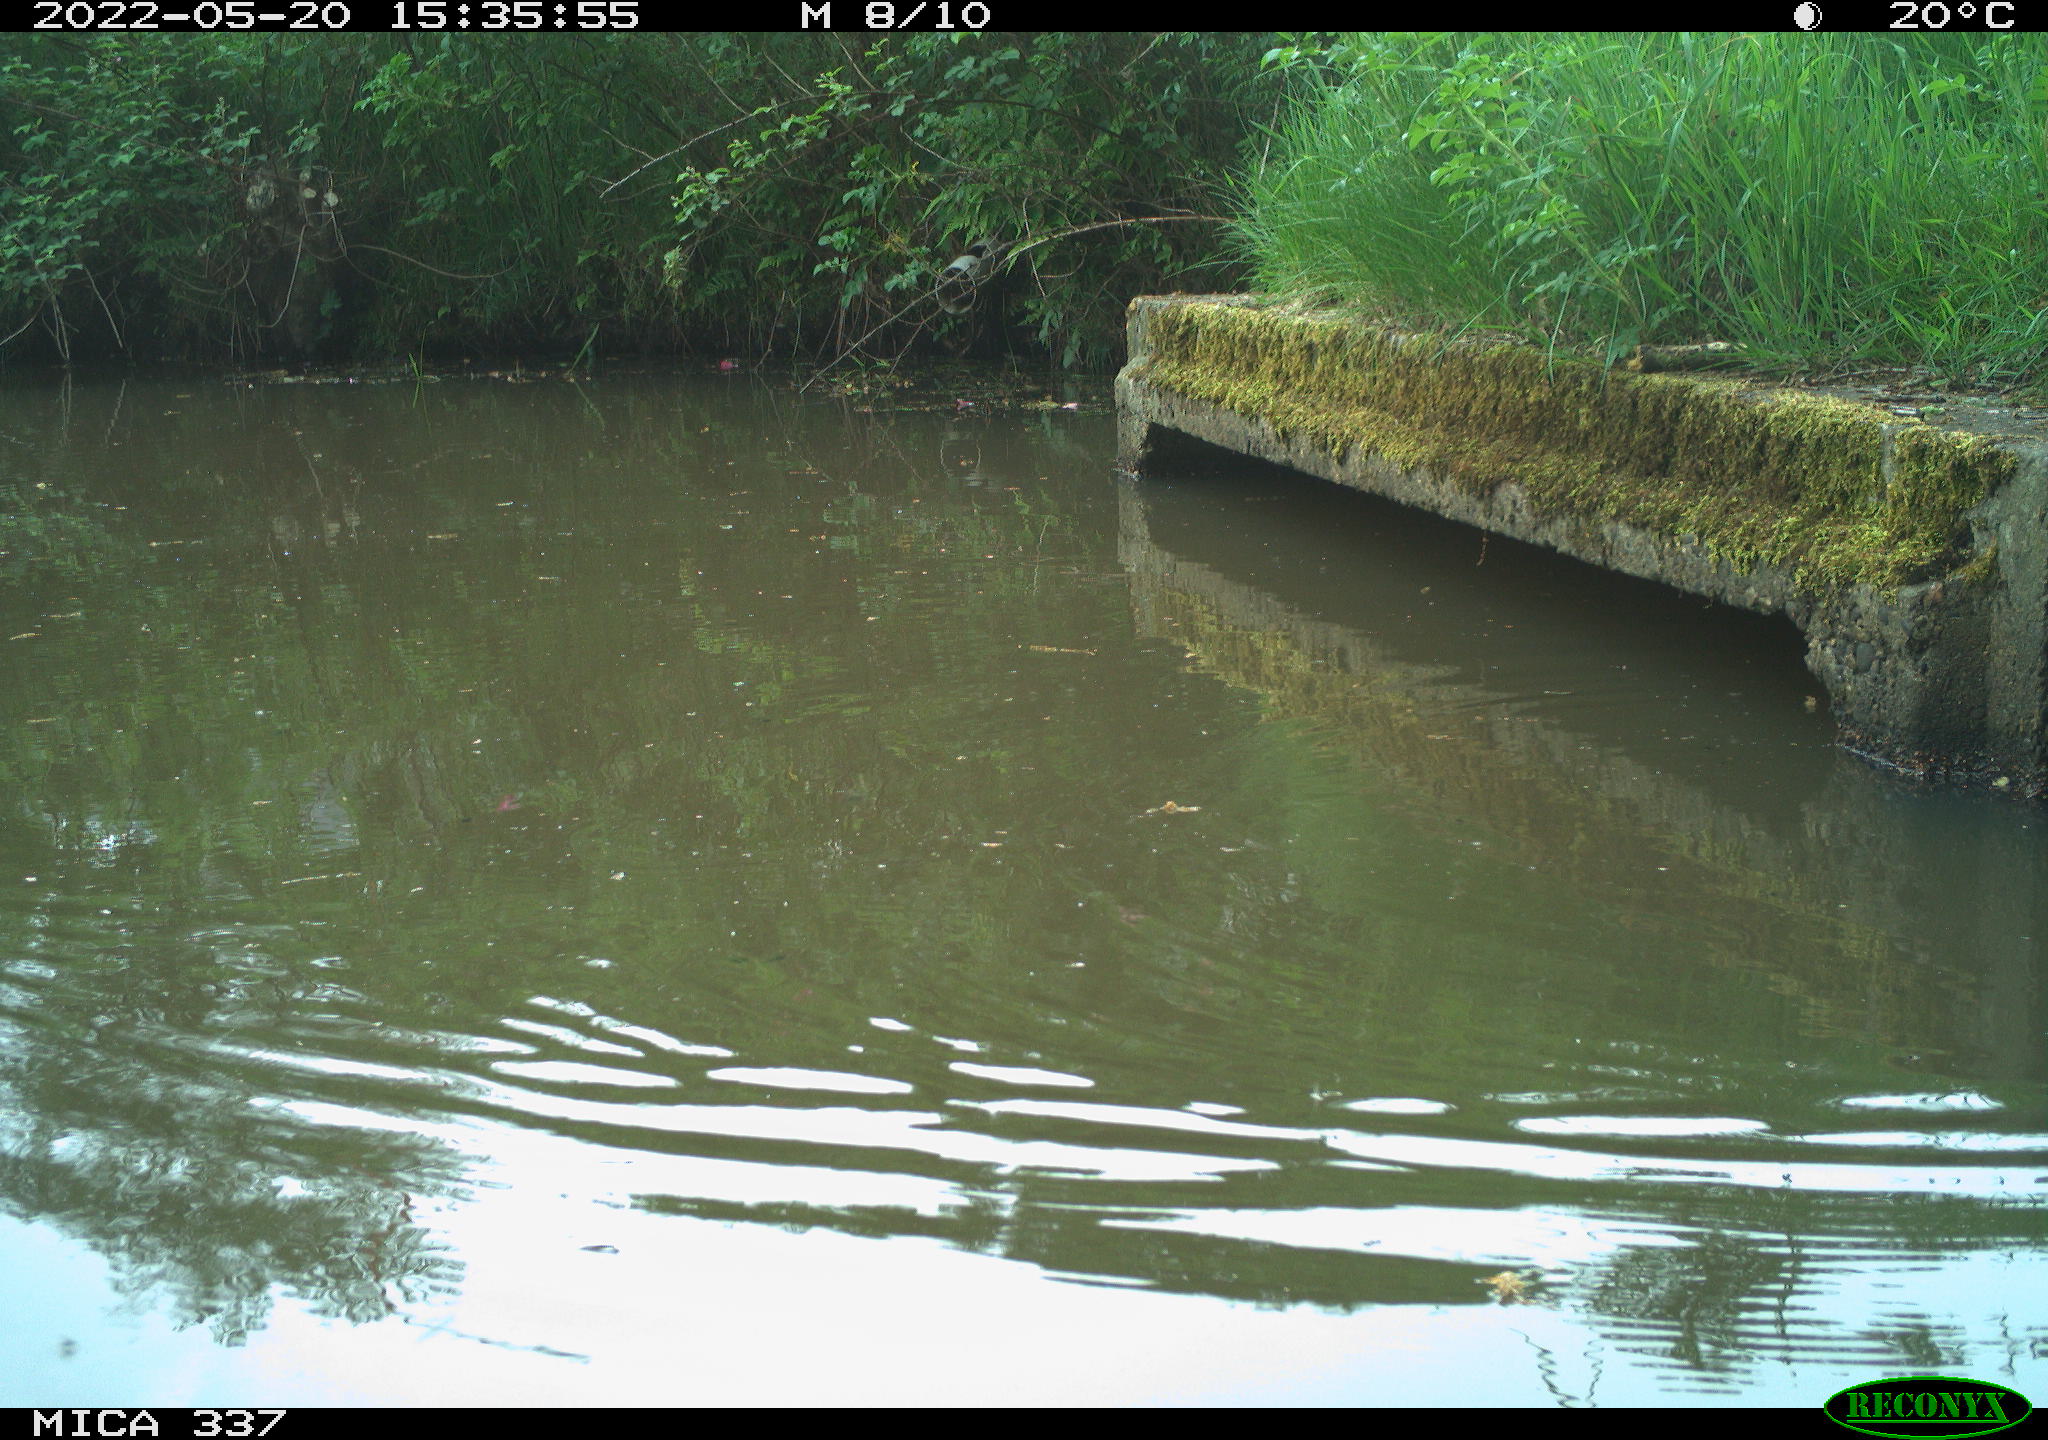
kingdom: Animalia
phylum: Chordata
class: Aves
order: Gruiformes
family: Rallidae
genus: Gallinula
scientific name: Gallinula chloropus
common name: Common moorhen
